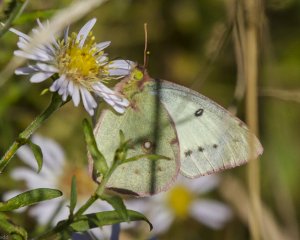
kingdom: Animalia
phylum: Arthropoda
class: Insecta
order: Lepidoptera
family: Pieridae
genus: Colias
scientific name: Colias philodice
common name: Clouded Sulphur
